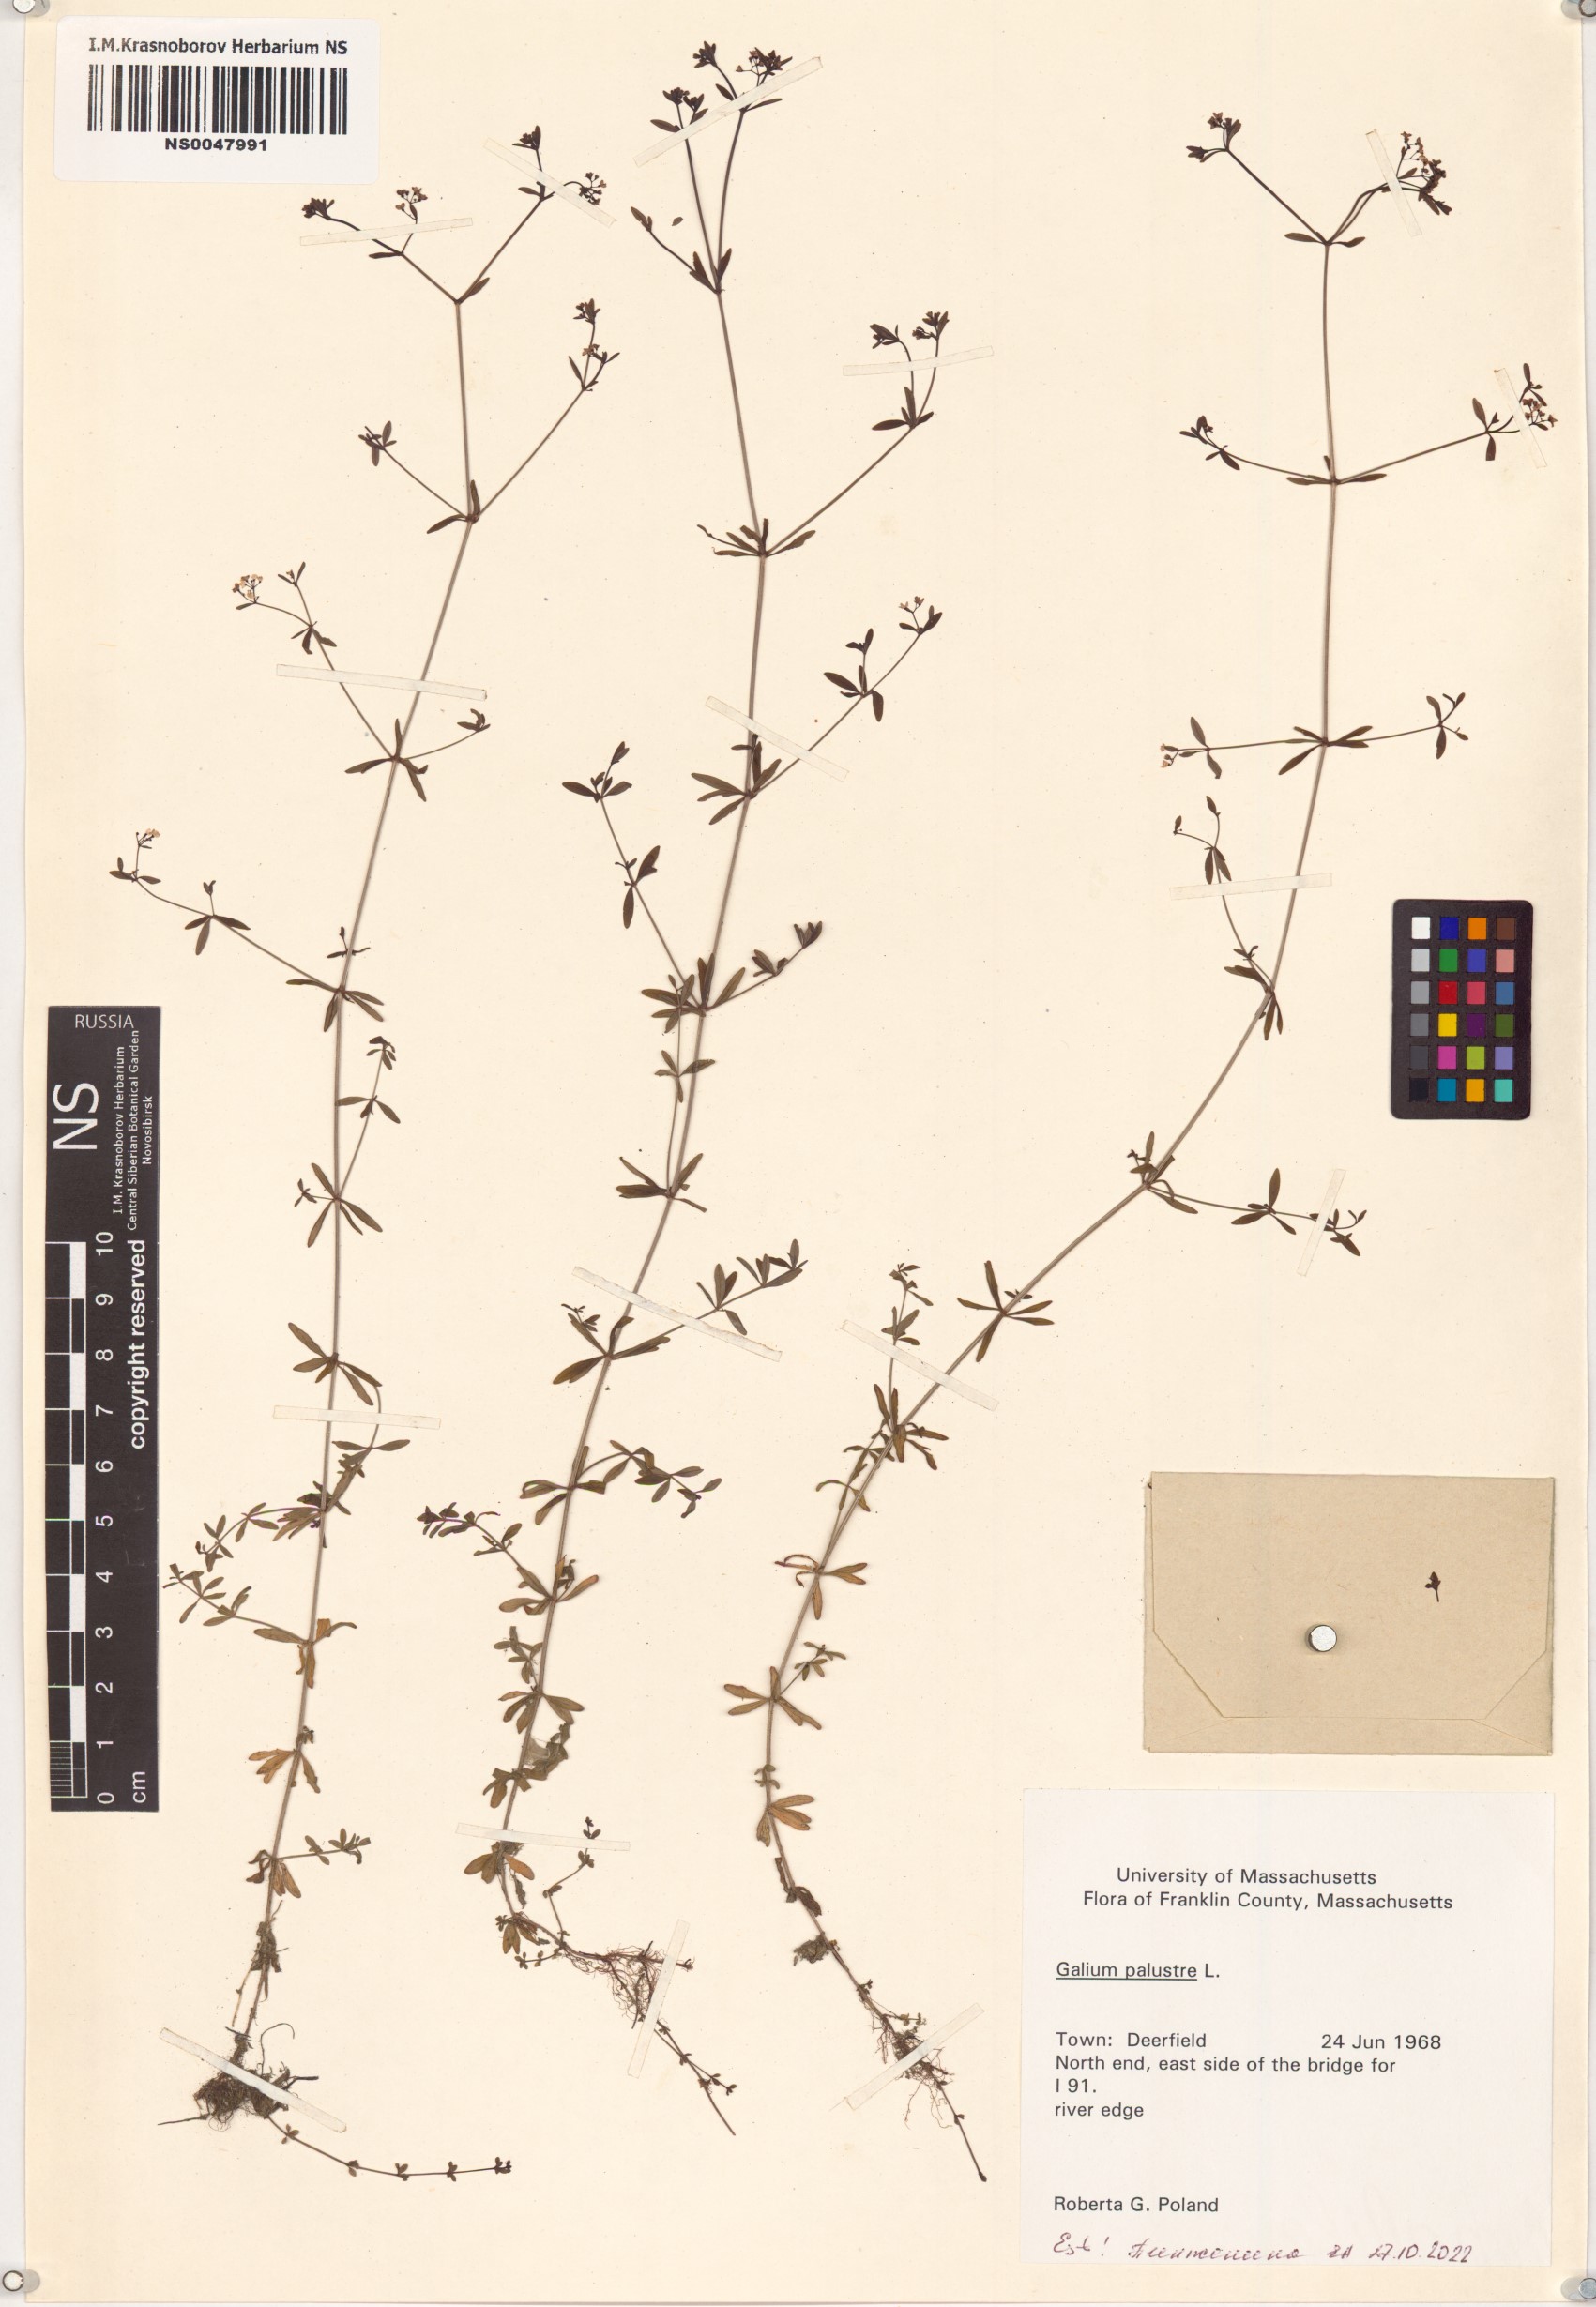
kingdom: Plantae
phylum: Tracheophyta
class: Magnoliopsida
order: Gentianales
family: Rubiaceae
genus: Galium
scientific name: Galium palustre
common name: Common marsh-bedstraw
